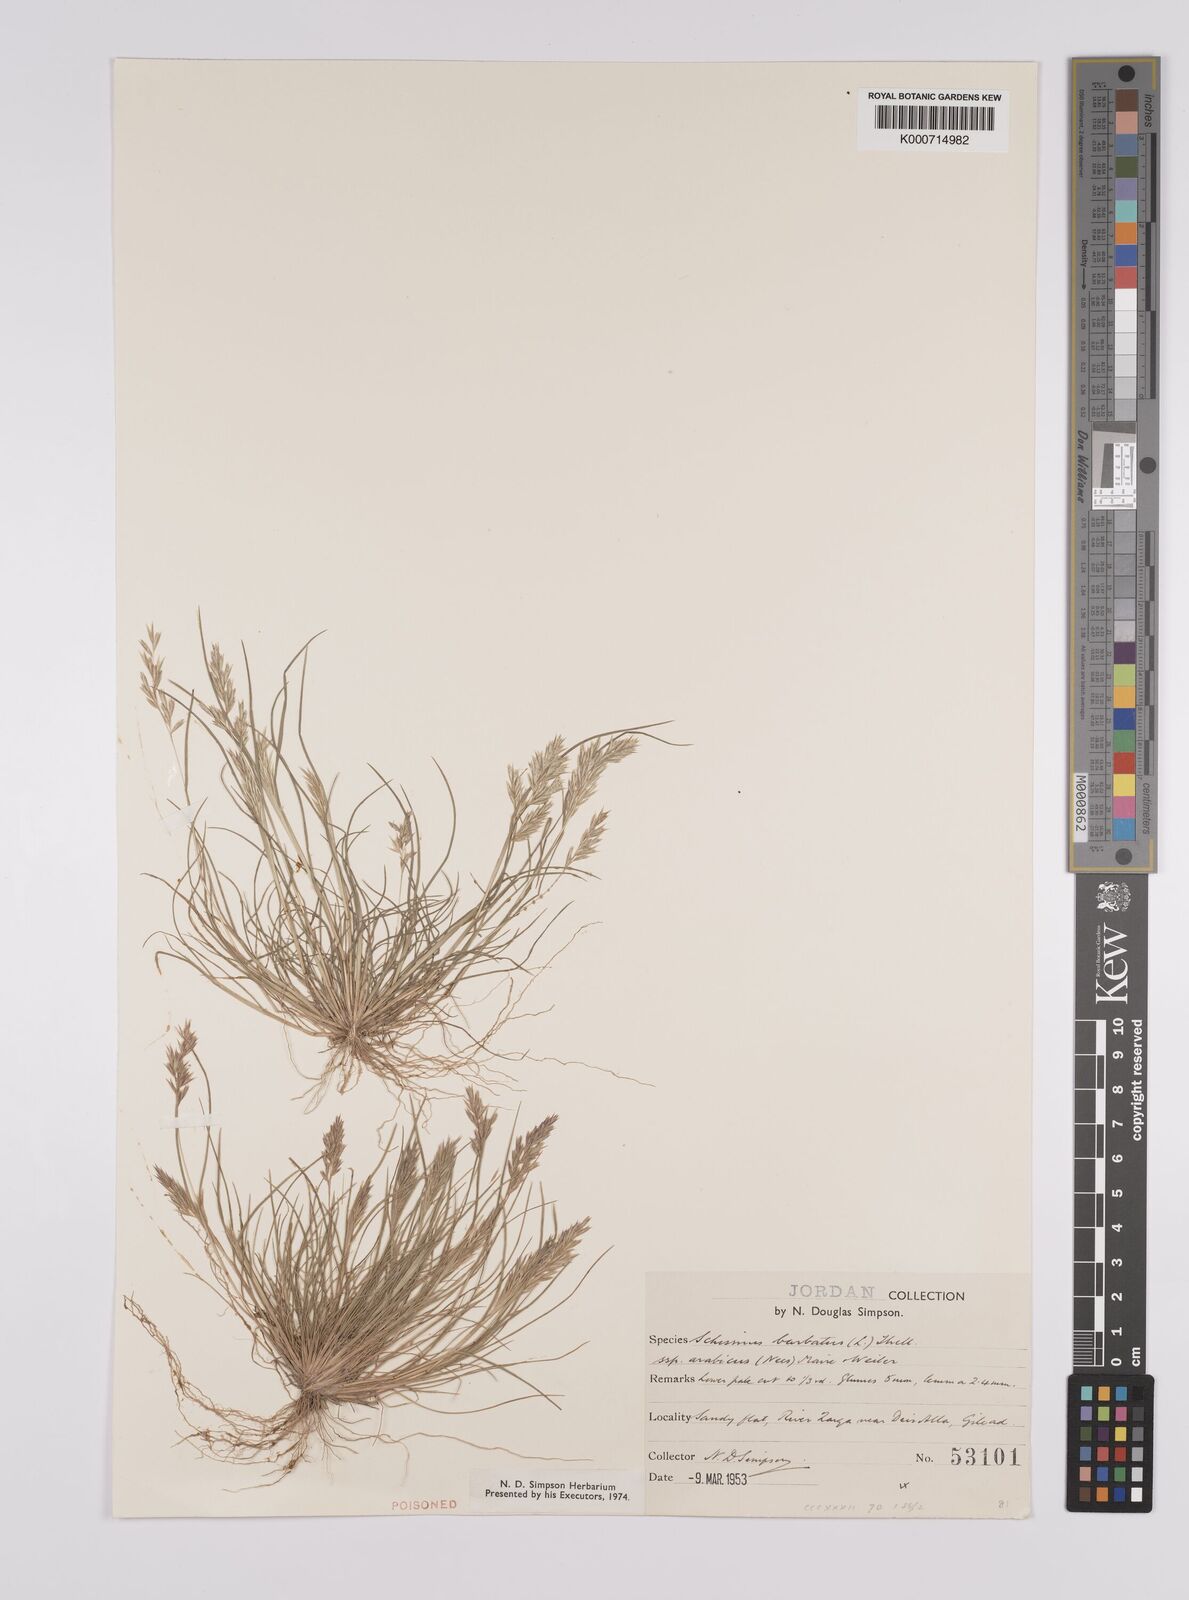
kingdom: Plantae
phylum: Tracheophyta
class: Liliopsida
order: Poales
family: Poaceae
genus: Schismus
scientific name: Schismus arabicus
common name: Arabian schismus
